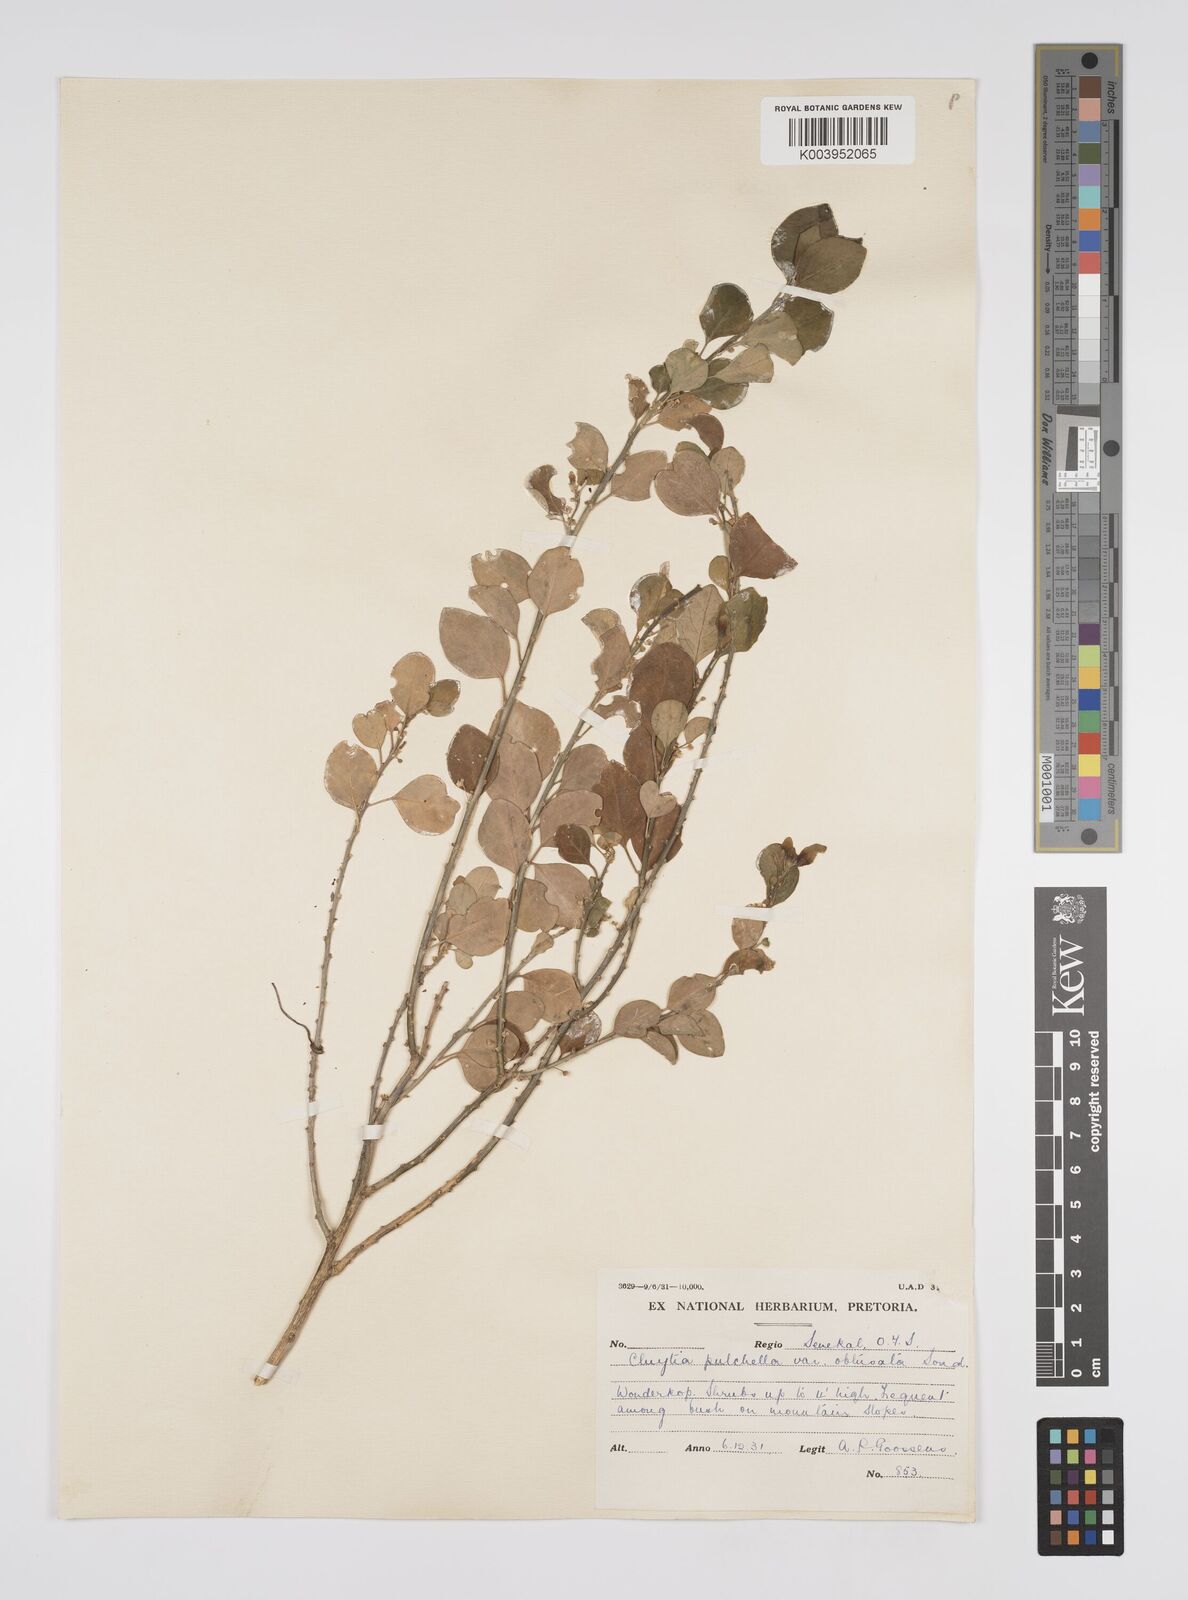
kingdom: Plantae
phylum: Tracheophyta
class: Magnoliopsida
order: Malpighiales
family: Peraceae
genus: Clutia
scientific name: Clutia pulchella
